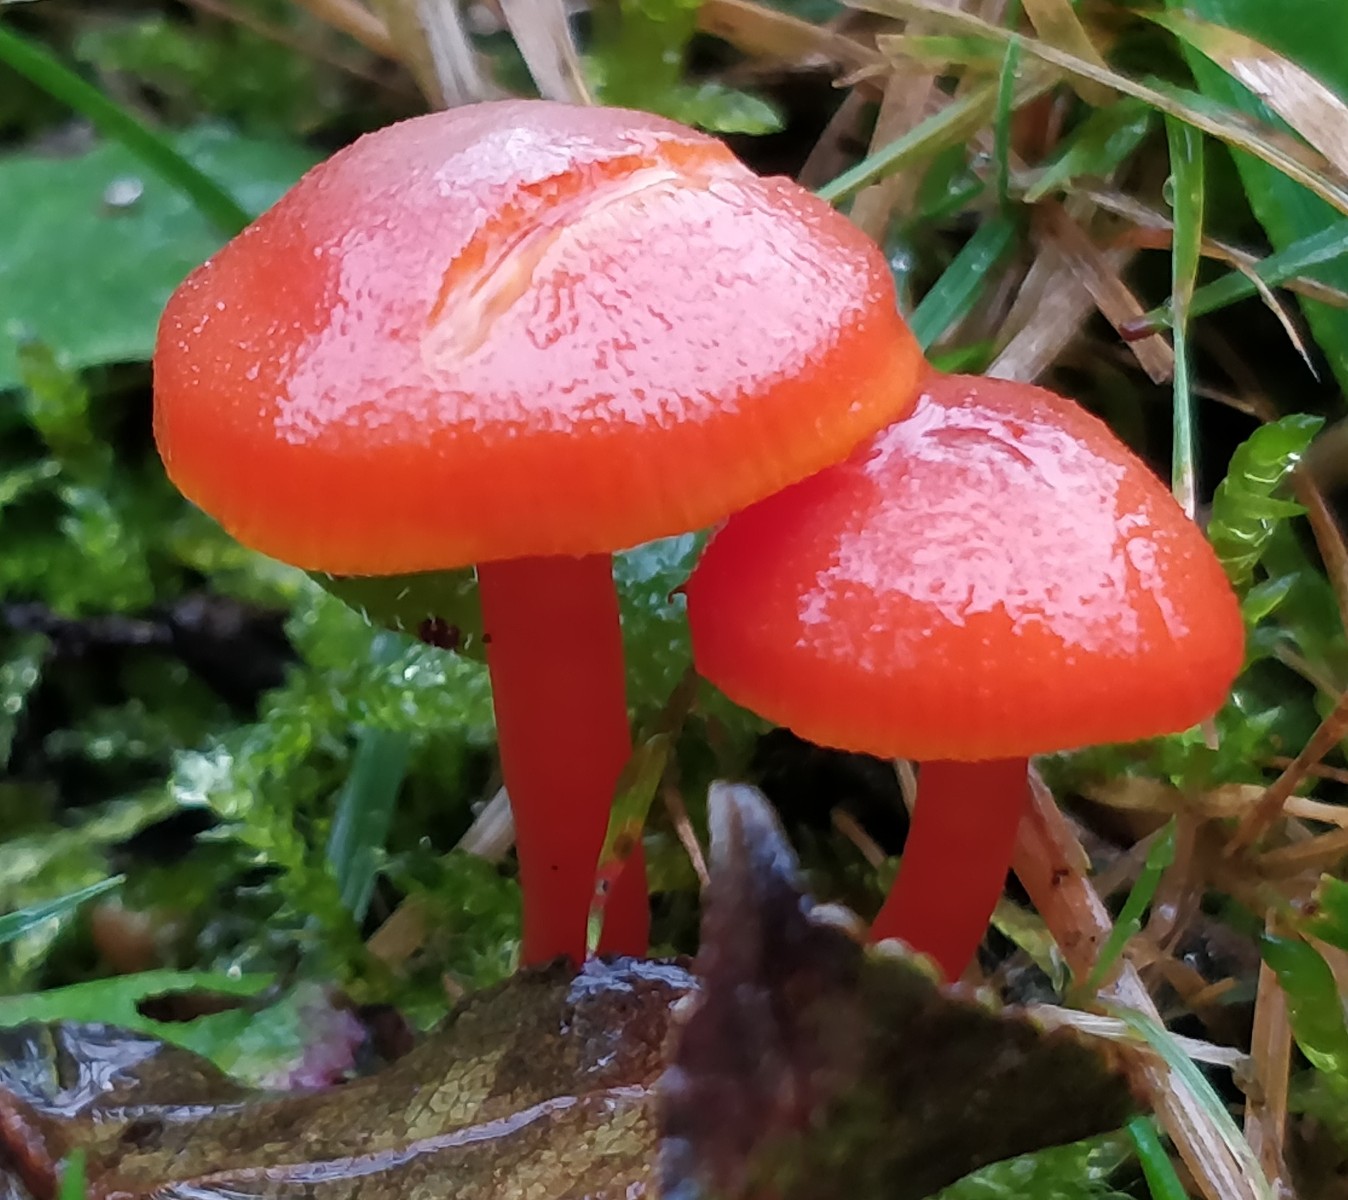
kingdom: Fungi
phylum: Basidiomycota
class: Agaricomycetes
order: Agaricales
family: Hygrophoraceae
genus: Hygrocybe
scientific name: Hygrocybe miniata
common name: mønje-vokshat
